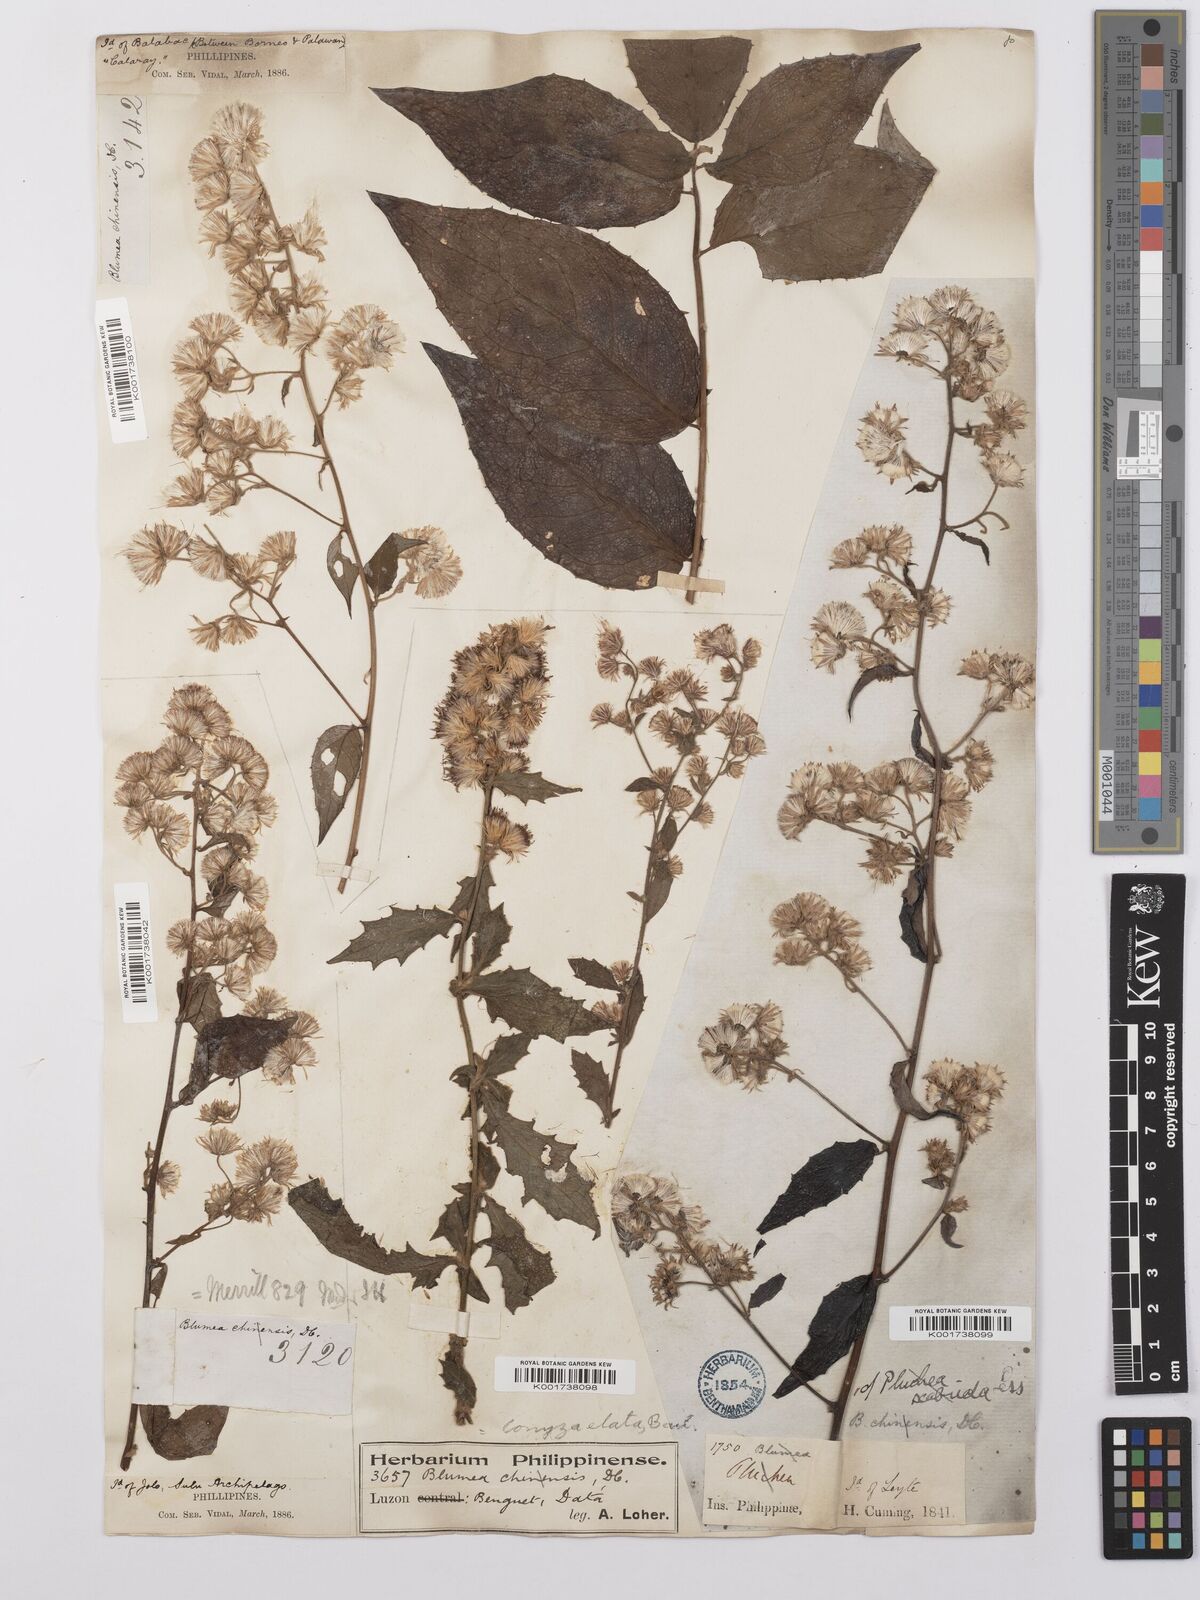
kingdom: Plantae
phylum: Tracheophyta
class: Magnoliopsida
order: Asterales
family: Asteraceae
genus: Erigeron
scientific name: Erigeron floribundus
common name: Bilbao fleabane
